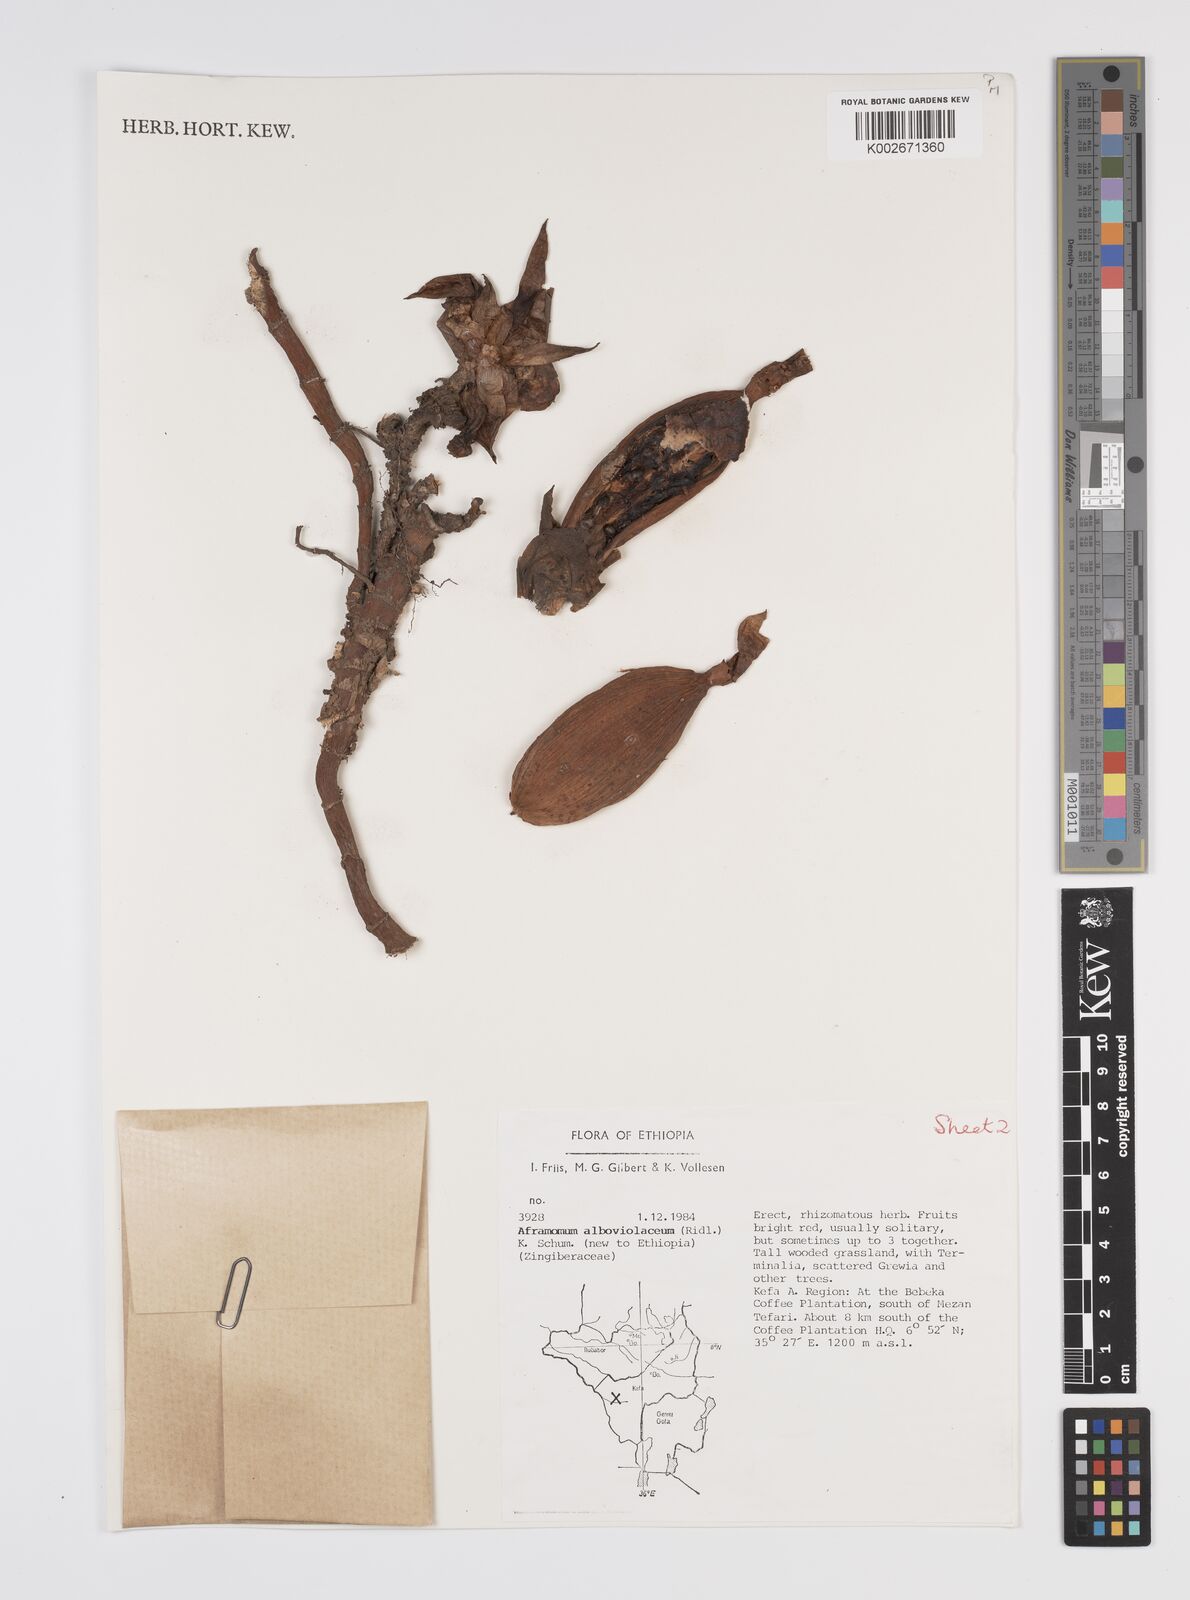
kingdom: Plantae
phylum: Tracheophyta
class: Liliopsida
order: Zingiberales
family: Zingiberaceae
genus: Aframomum
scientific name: Aframomum alboviolaceum
